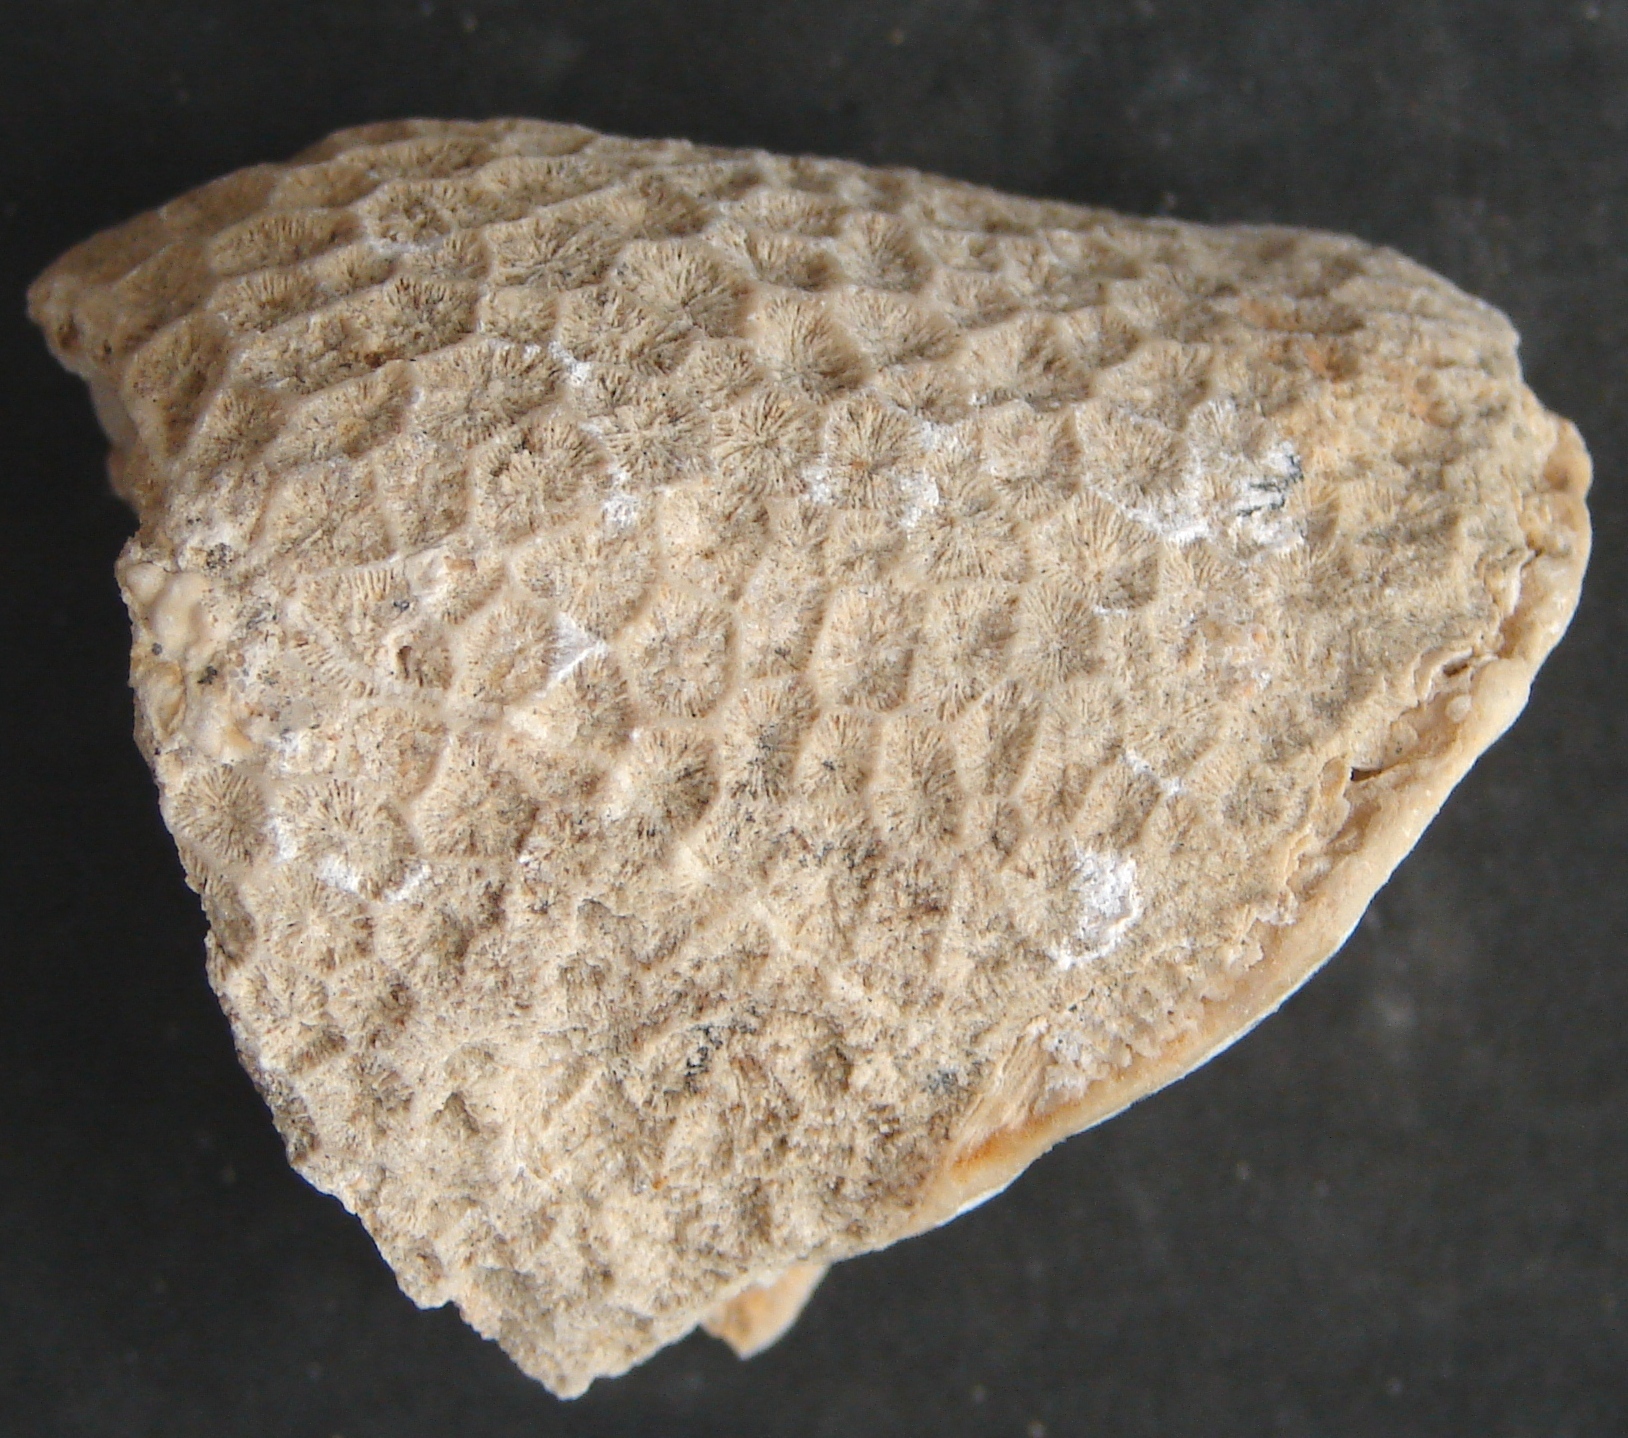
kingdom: Animalia
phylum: Cnidaria
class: Anthozoa
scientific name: Anthozoa
